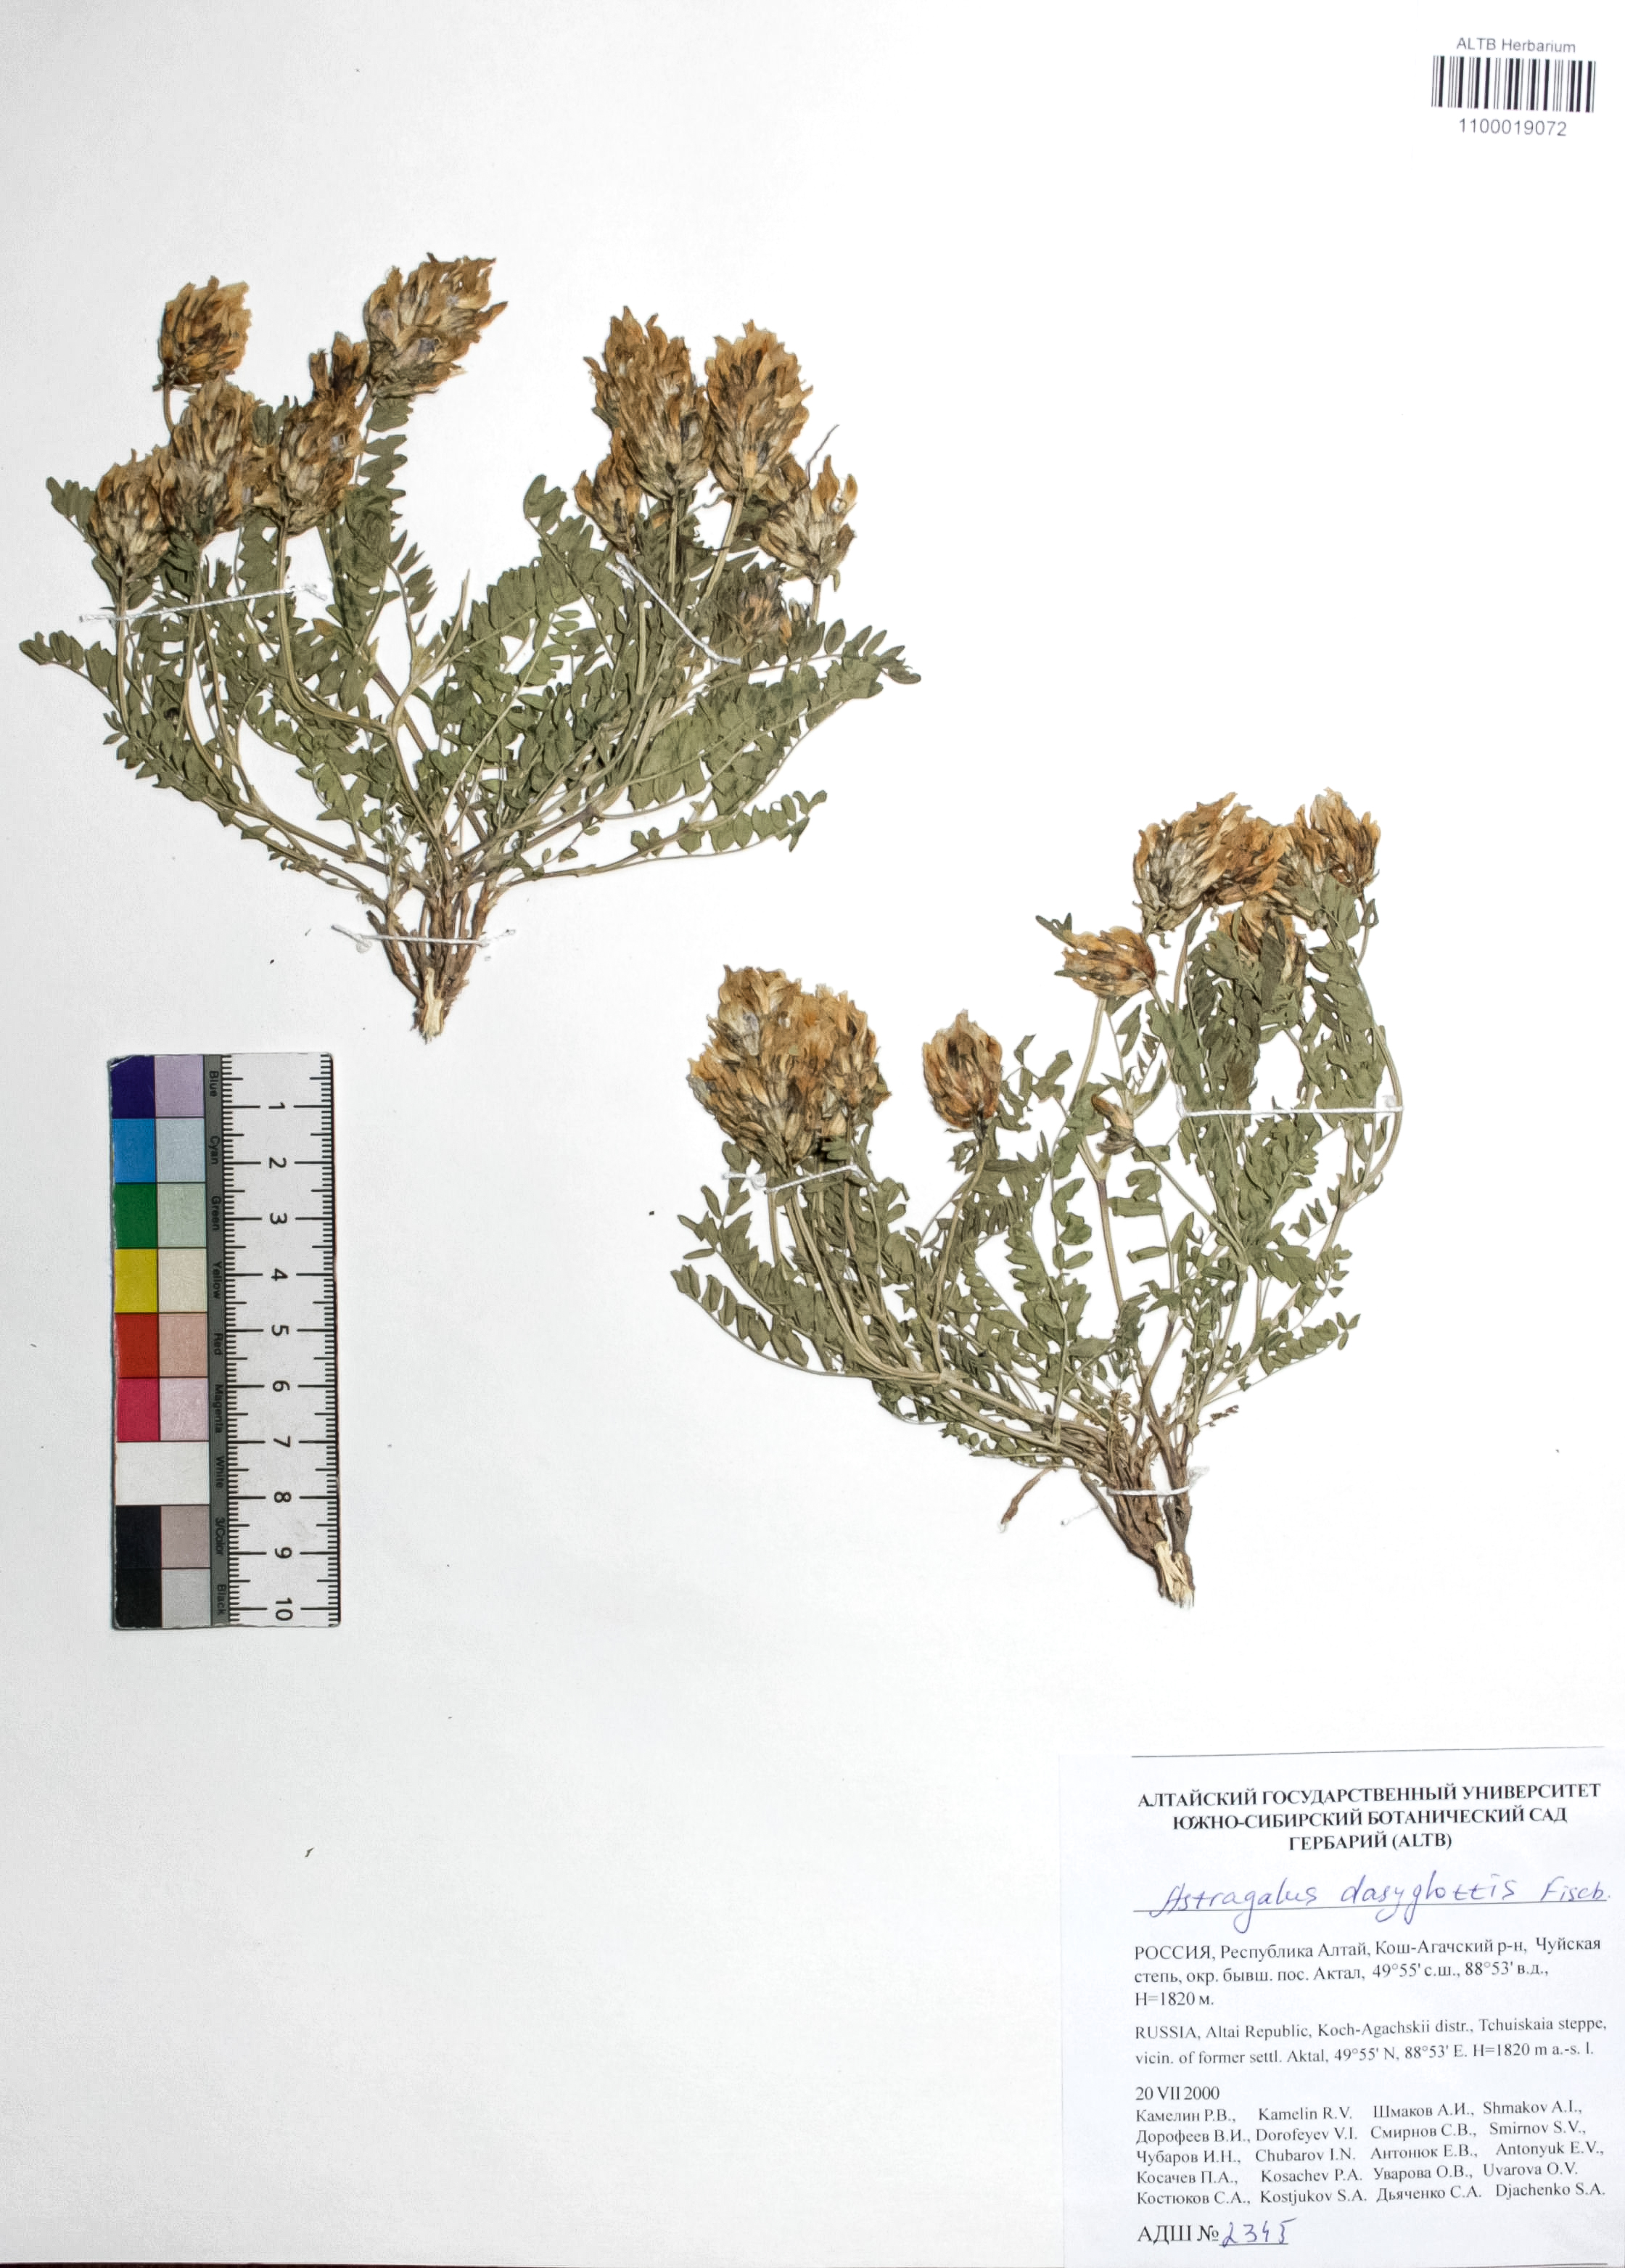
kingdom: Plantae
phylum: Tracheophyta
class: Magnoliopsida
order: Fabales
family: Fabaceae
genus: Astragalus
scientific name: Astragalus agrestis
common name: Field milk-vetch
